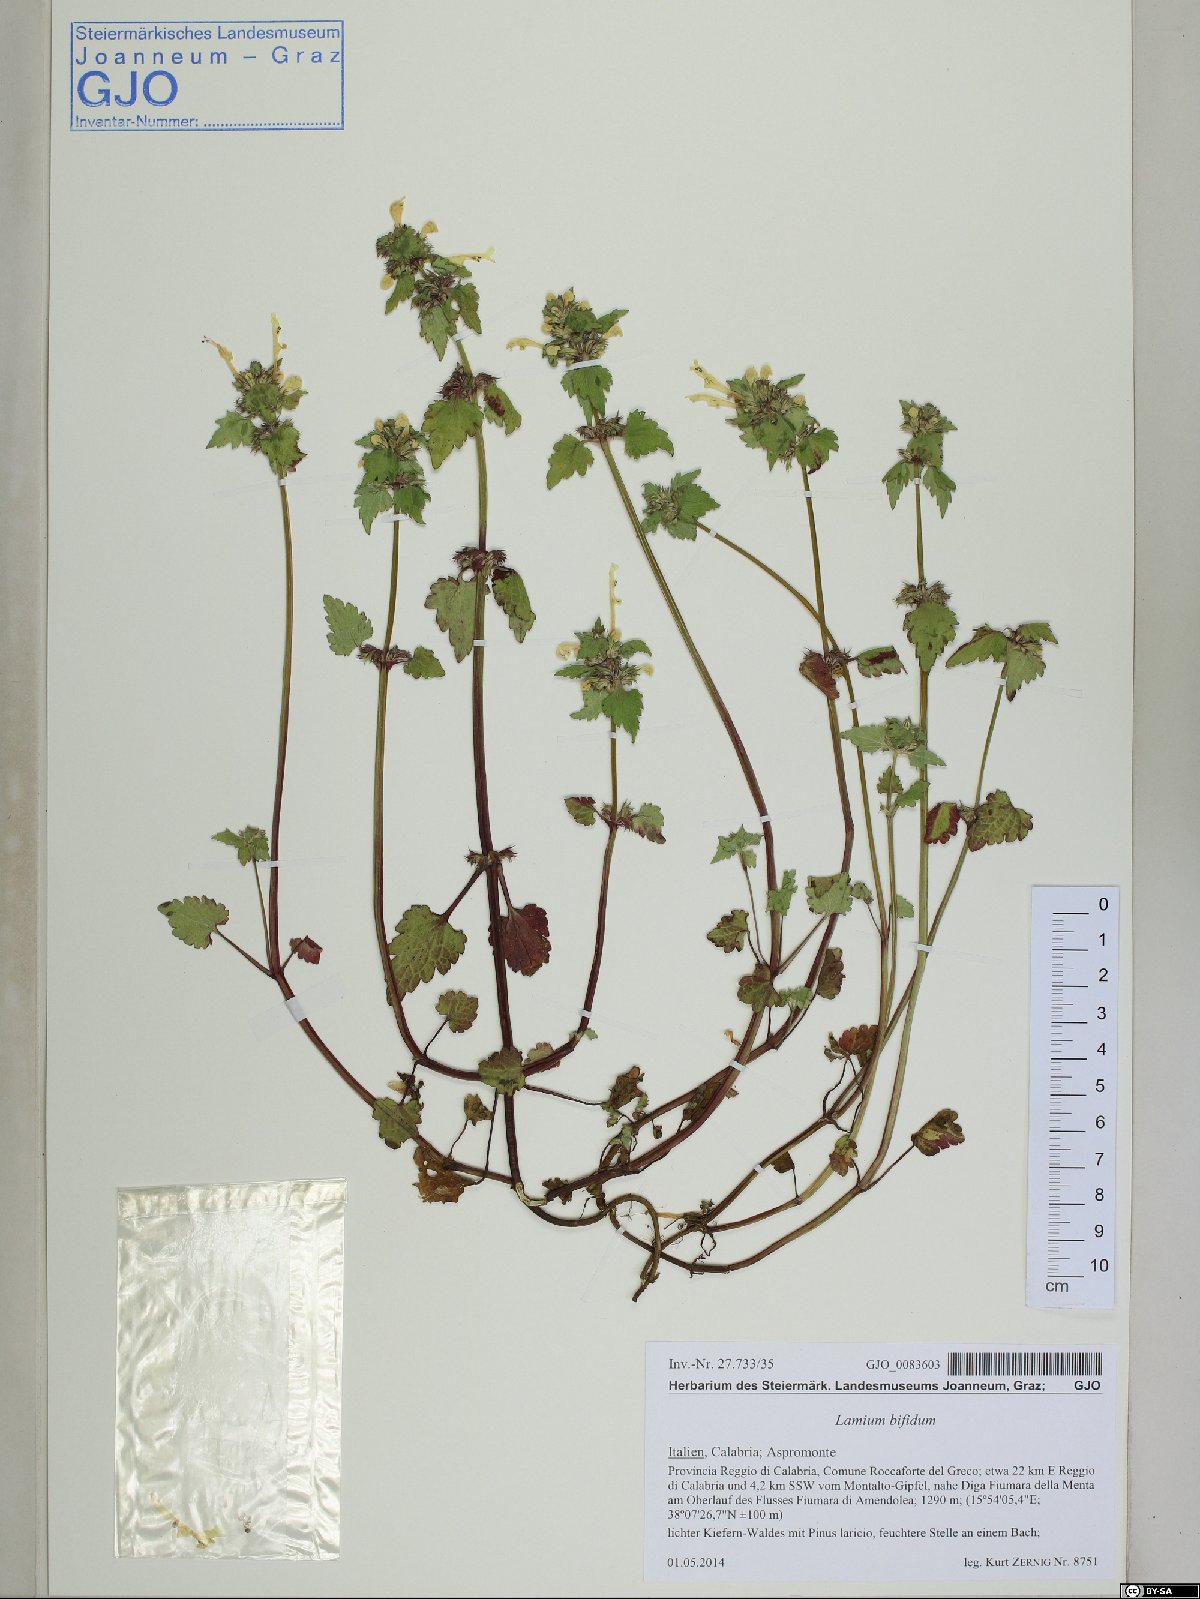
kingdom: Plantae
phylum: Tracheophyta
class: Magnoliopsida
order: Lamiales
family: Lamiaceae
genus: Lamium
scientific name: Lamium bifidum
